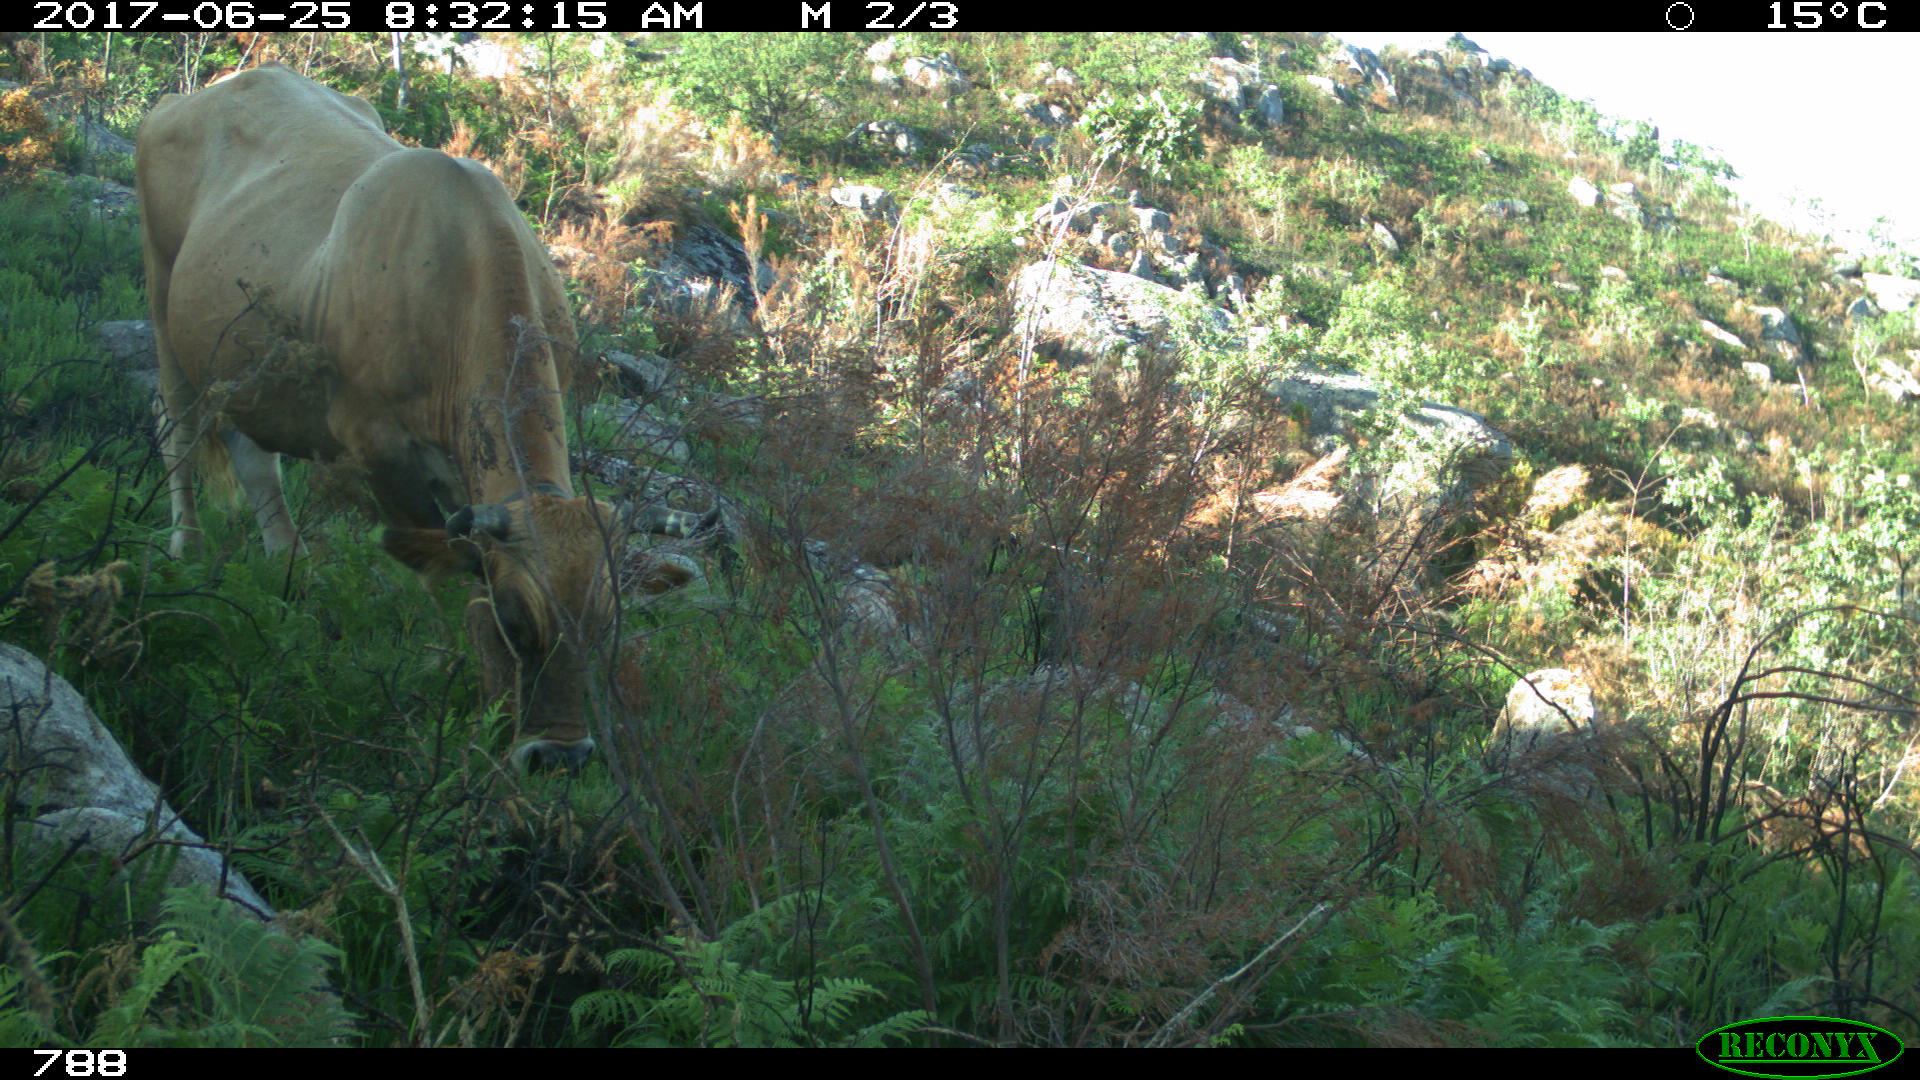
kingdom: Animalia
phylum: Chordata
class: Mammalia
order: Artiodactyla
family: Bovidae
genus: Bos
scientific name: Bos taurus
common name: Domesticated cattle
